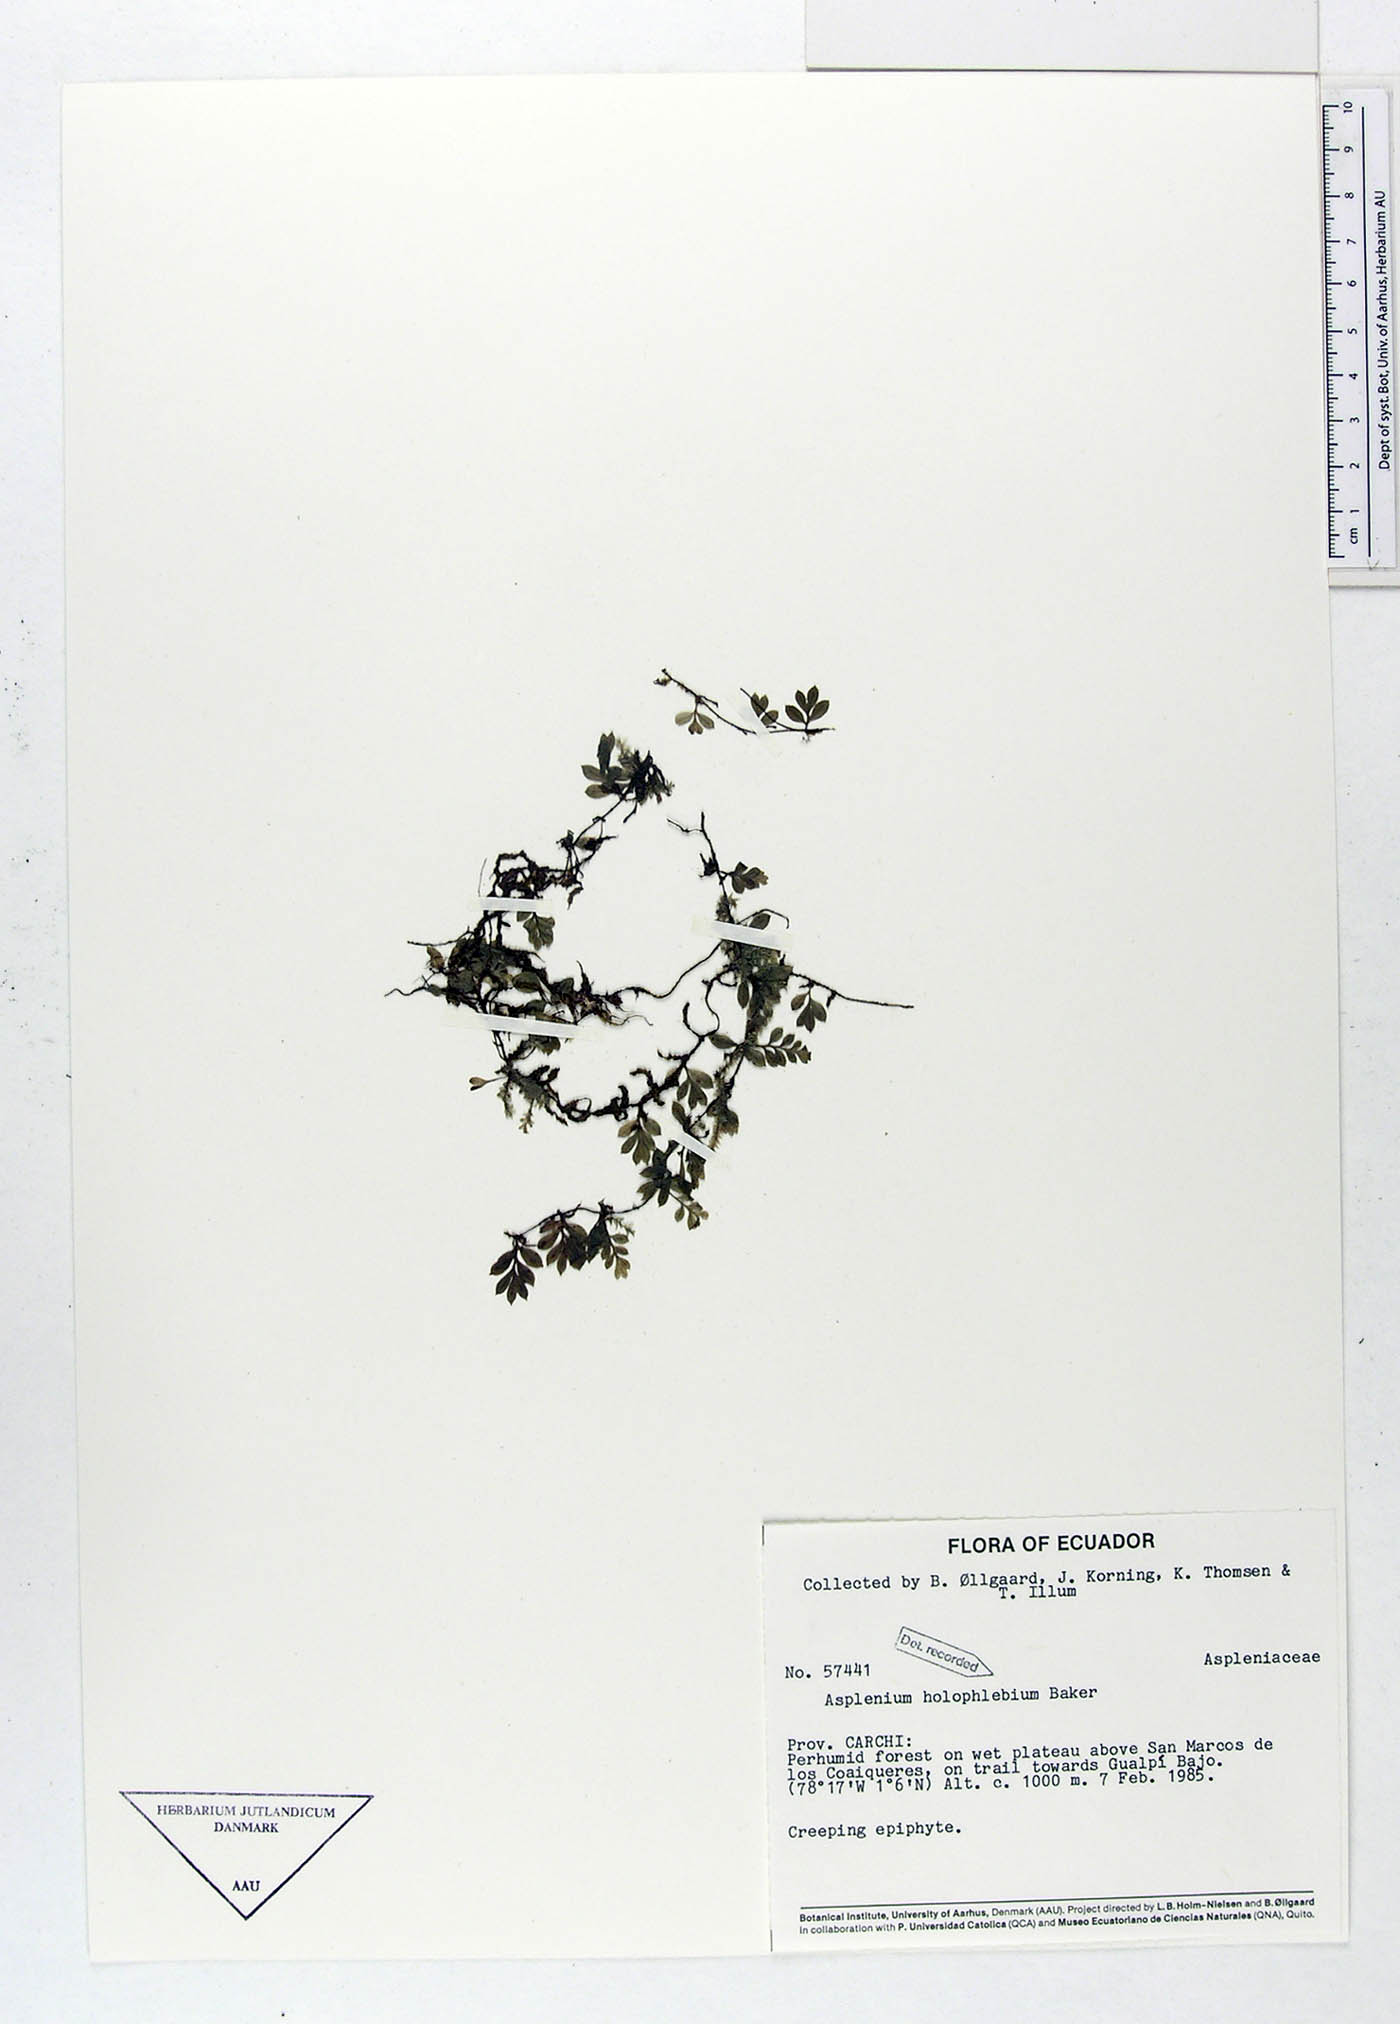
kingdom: Plantae
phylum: Tracheophyta
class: Polypodiopsida
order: Polypodiales
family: Aspleniaceae
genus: Asplenium
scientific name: Asplenium holophlebium
